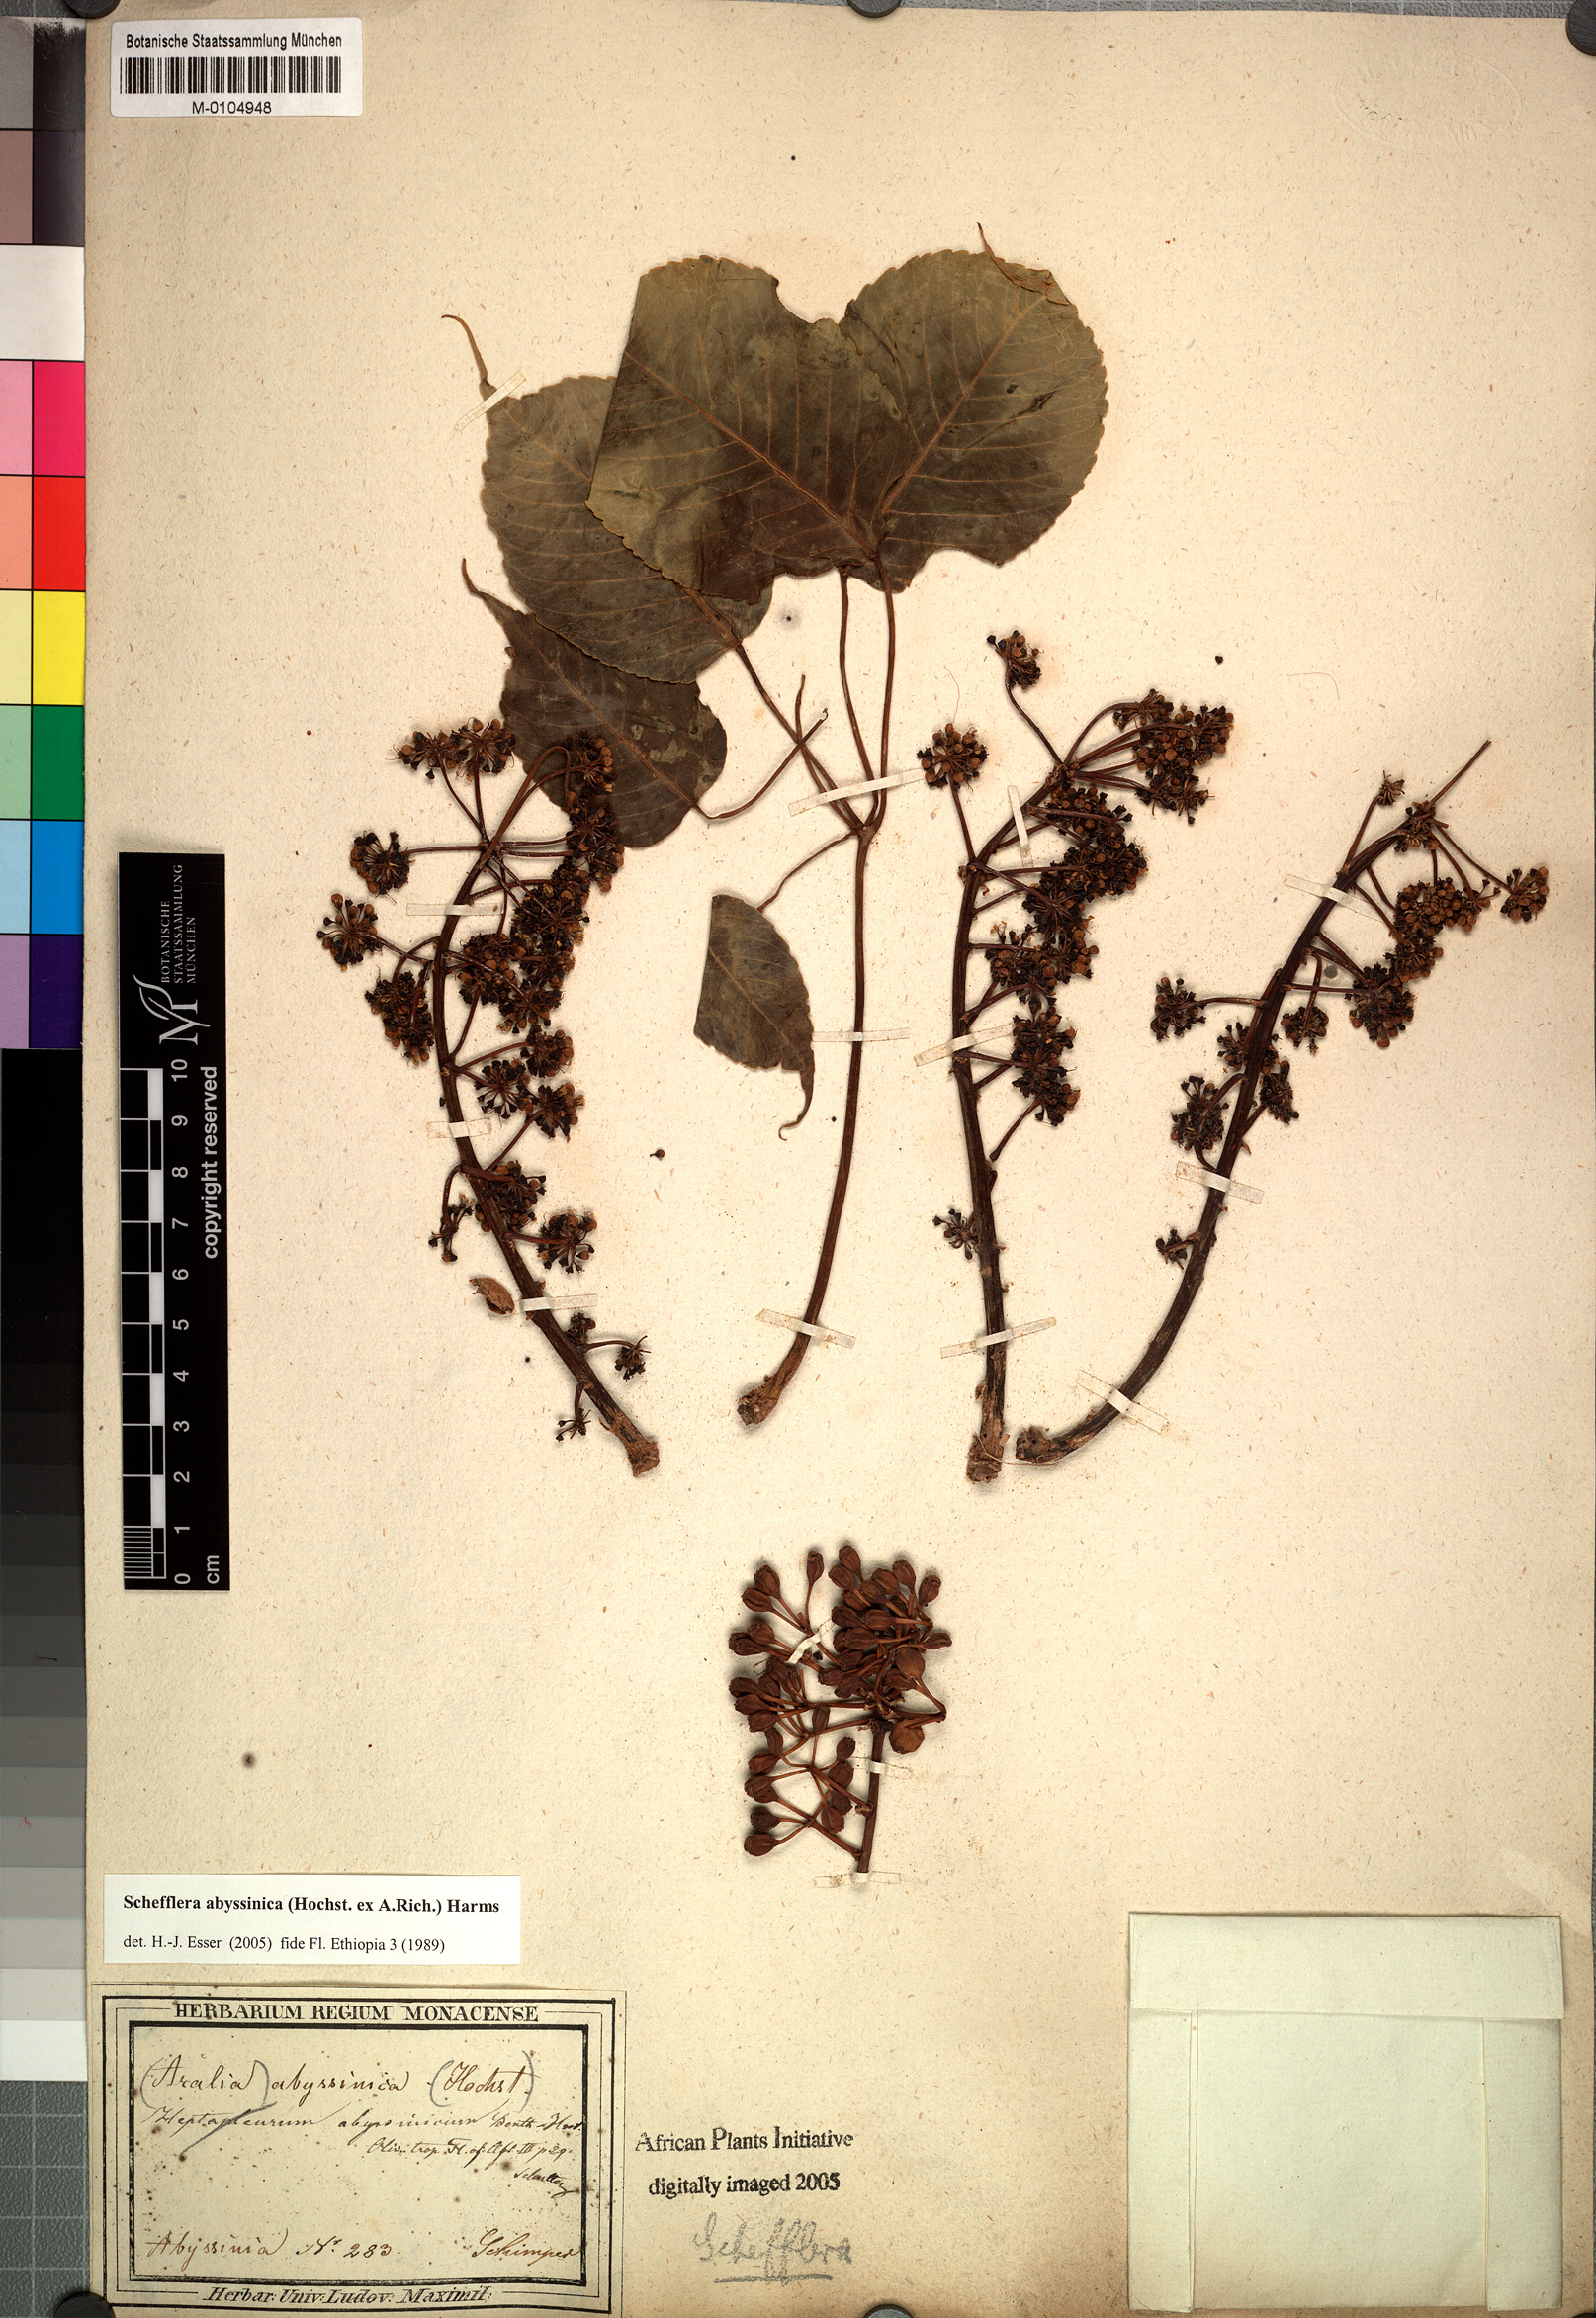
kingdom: Plantae
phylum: Tracheophyta
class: Magnoliopsida
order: Apiales
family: Araliaceae
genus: Astropanax
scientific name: Astropanax abyssinicum
